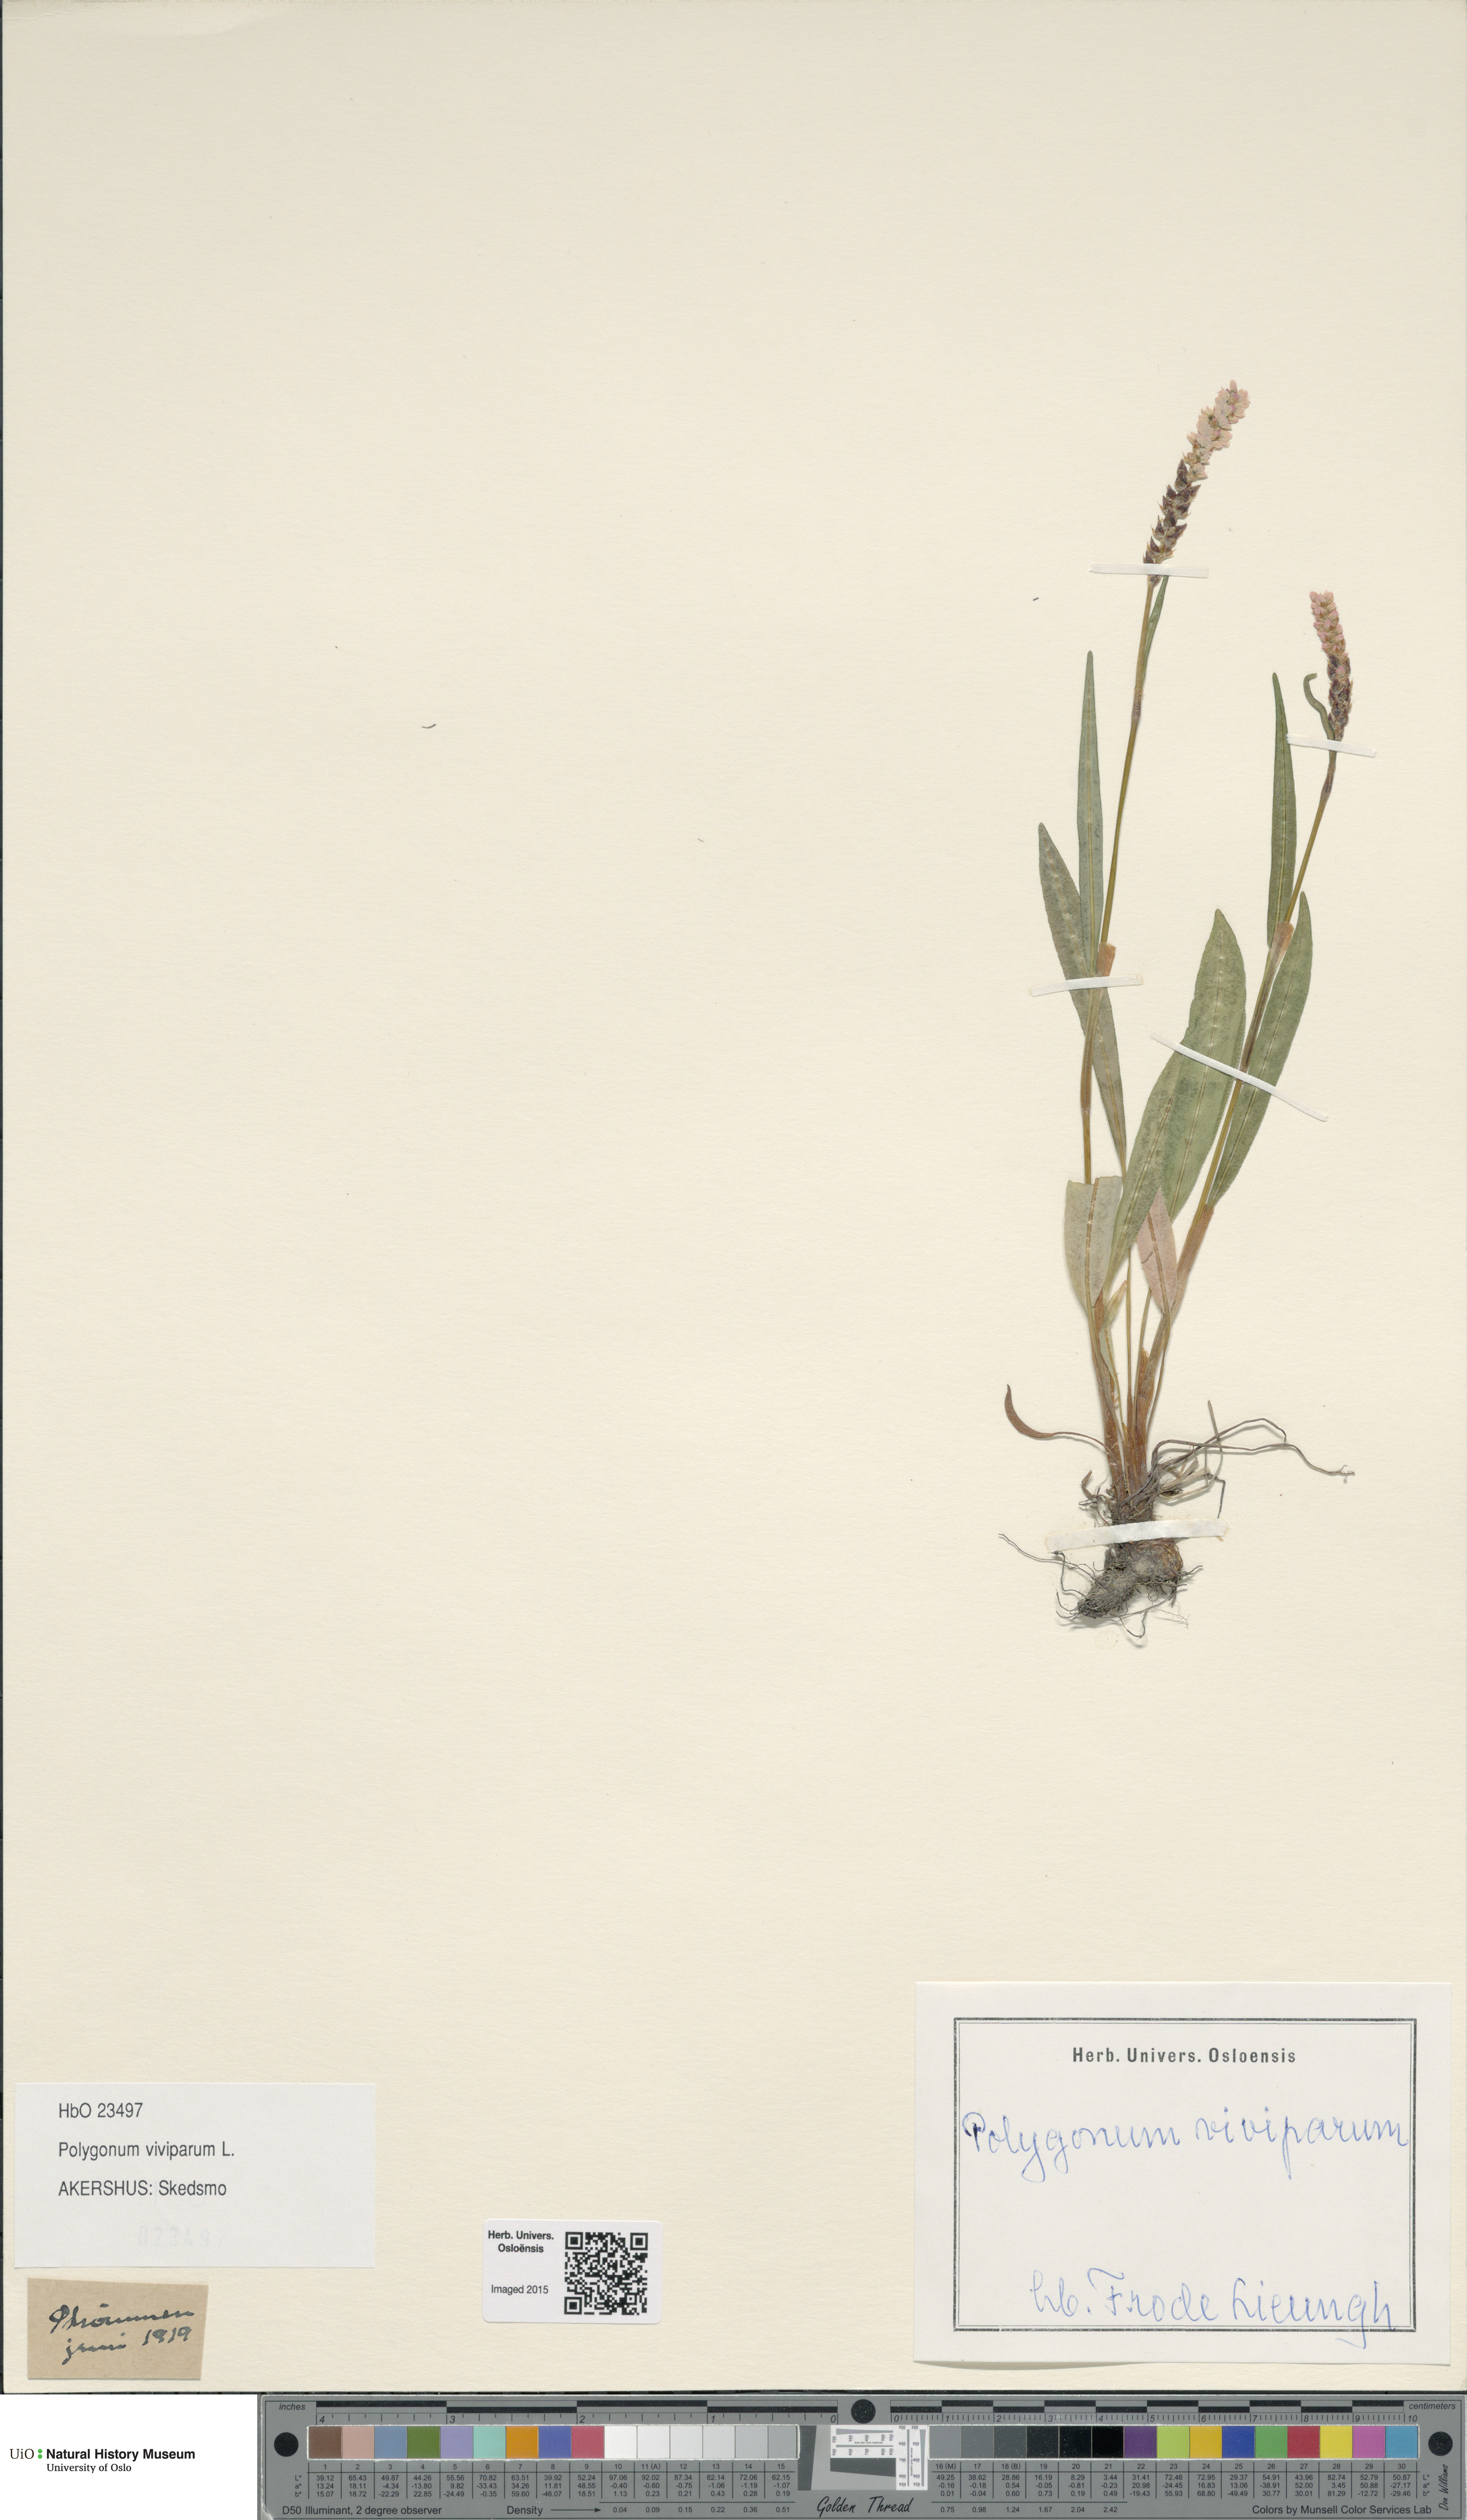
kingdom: Plantae
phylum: Tracheophyta
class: Magnoliopsida
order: Caryophyllales
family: Polygonaceae
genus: Bistorta
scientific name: Bistorta vivipara
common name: Alpine bistort
